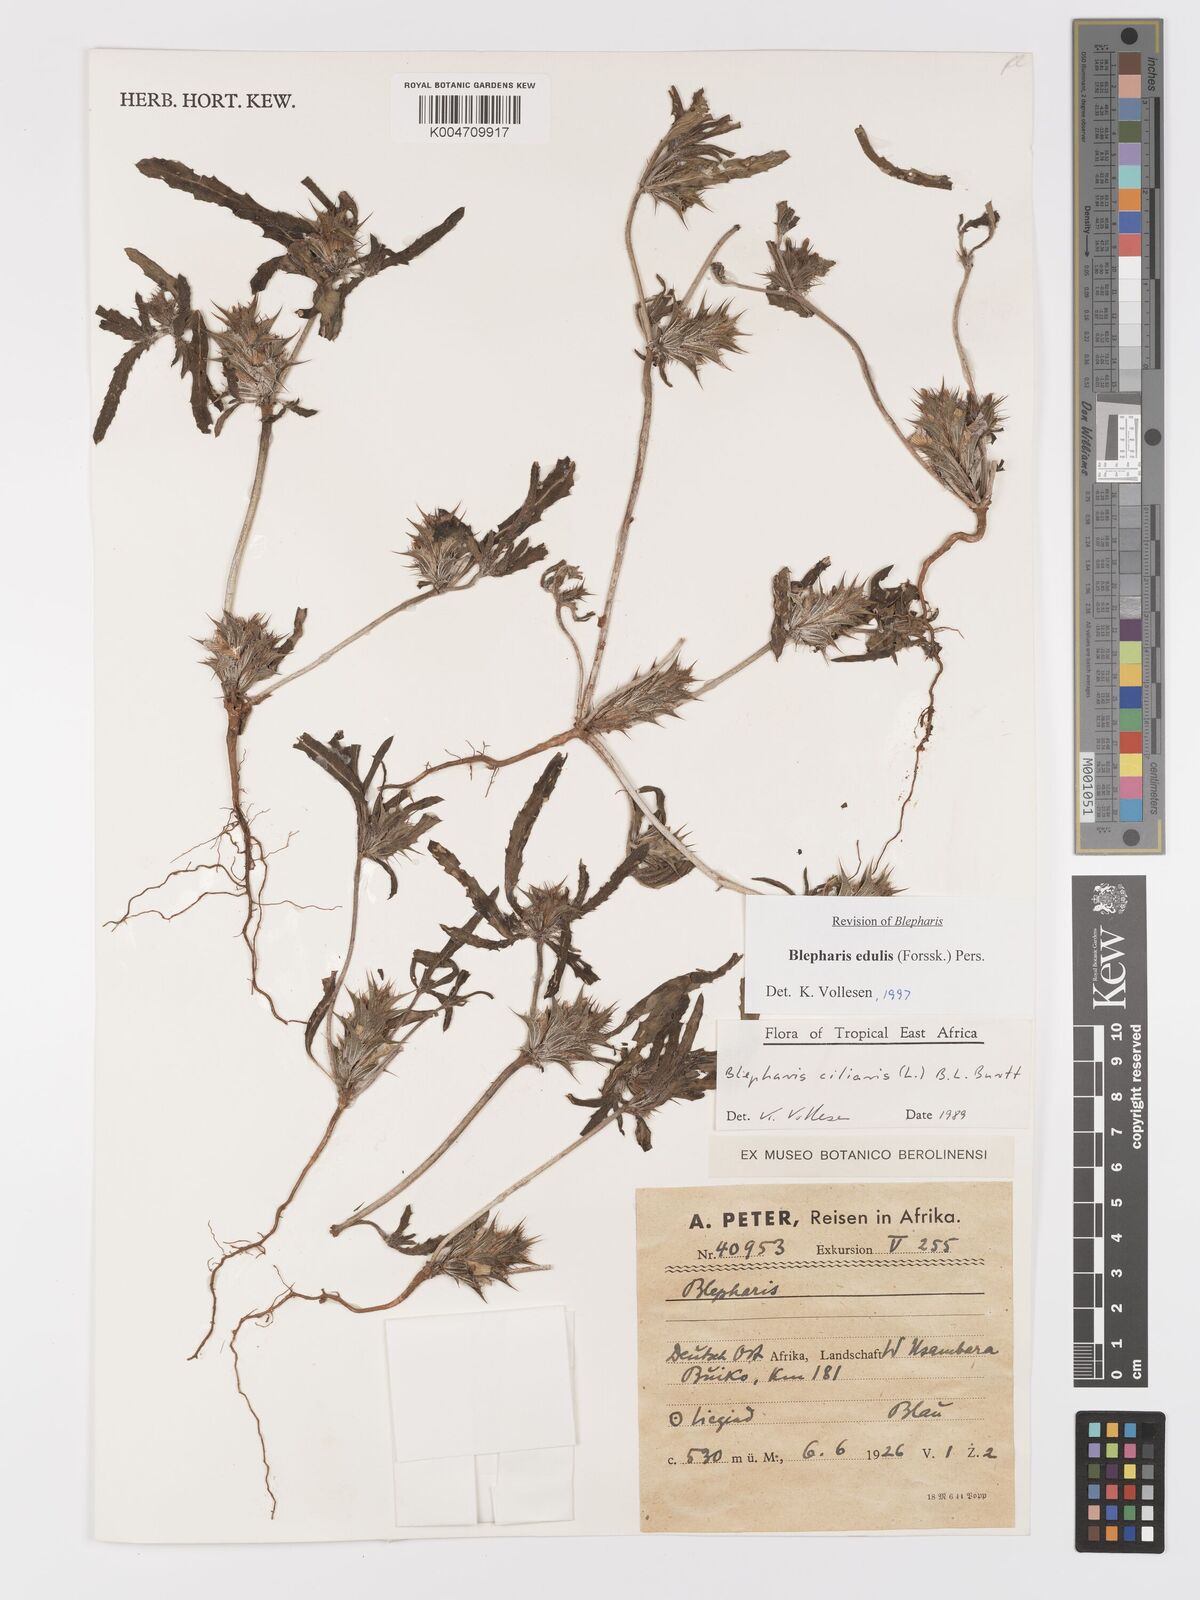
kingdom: Plantae
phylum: Tracheophyta
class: Magnoliopsida
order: Lamiales
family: Acanthaceae
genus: Blepharis
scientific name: Blepharis edulis
